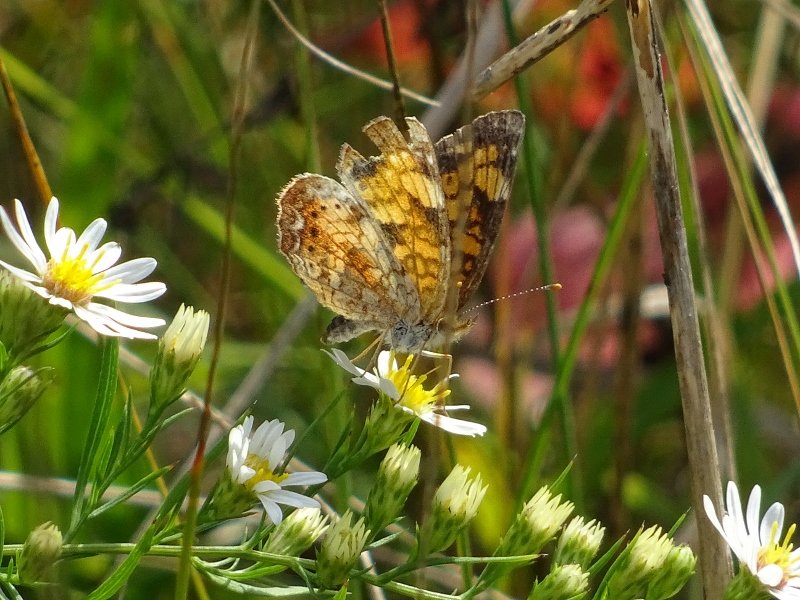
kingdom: Animalia
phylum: Arthropoda
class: Insecta
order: Lepidoptera
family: Nymphalidae
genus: Phyciodes
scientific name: Phyciodes tharos
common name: Northern Crescent
